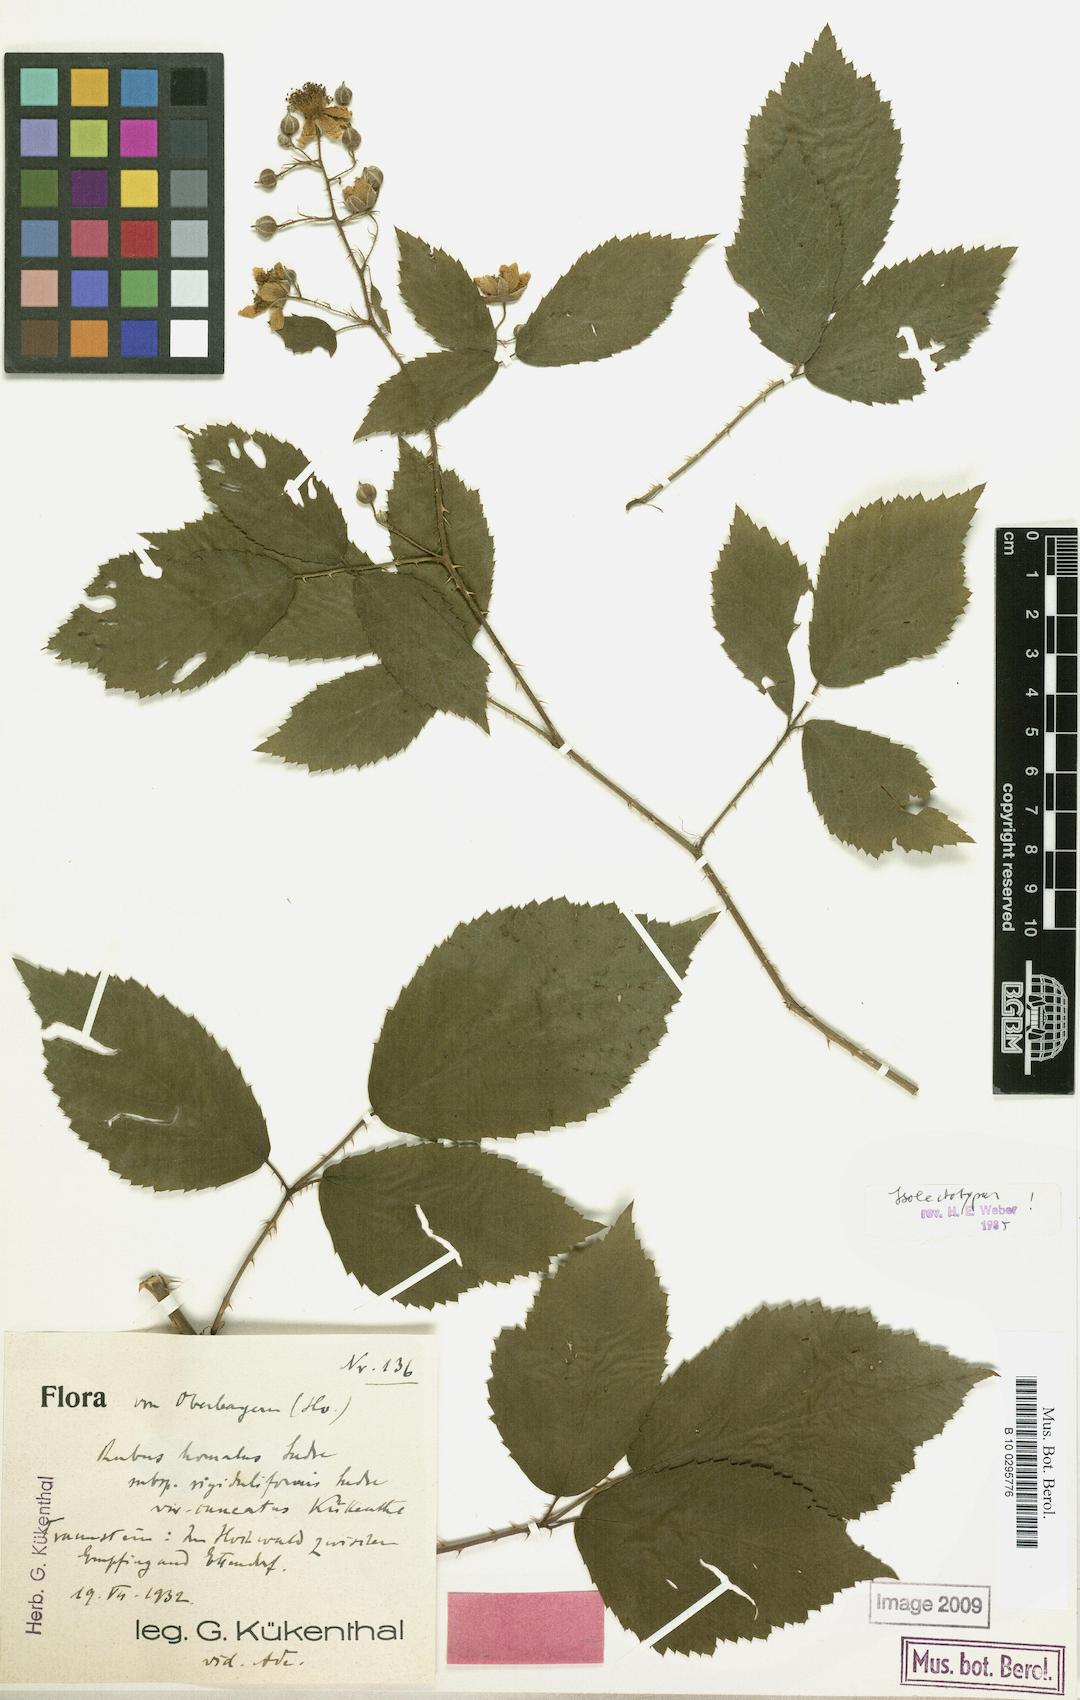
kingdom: Plantae
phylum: Tracheophyta
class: Magnoliopsida
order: Rosales
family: Rosaceae
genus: Rubus
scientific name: Rubus homalus
